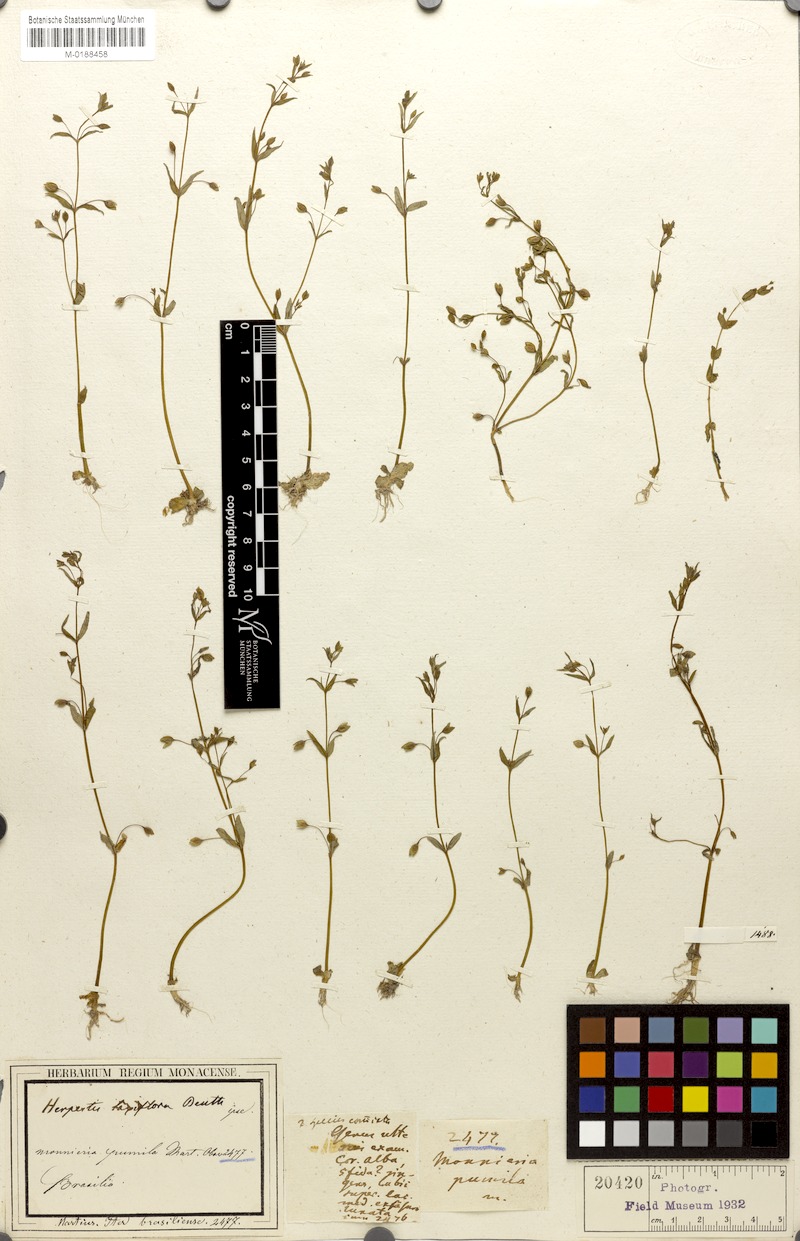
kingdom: Plantae
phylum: Tracheophyta
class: Magnoliopsida
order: Lamiales
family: Plantaginaceae
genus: Bacopa
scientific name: Bacopa laxiflora
